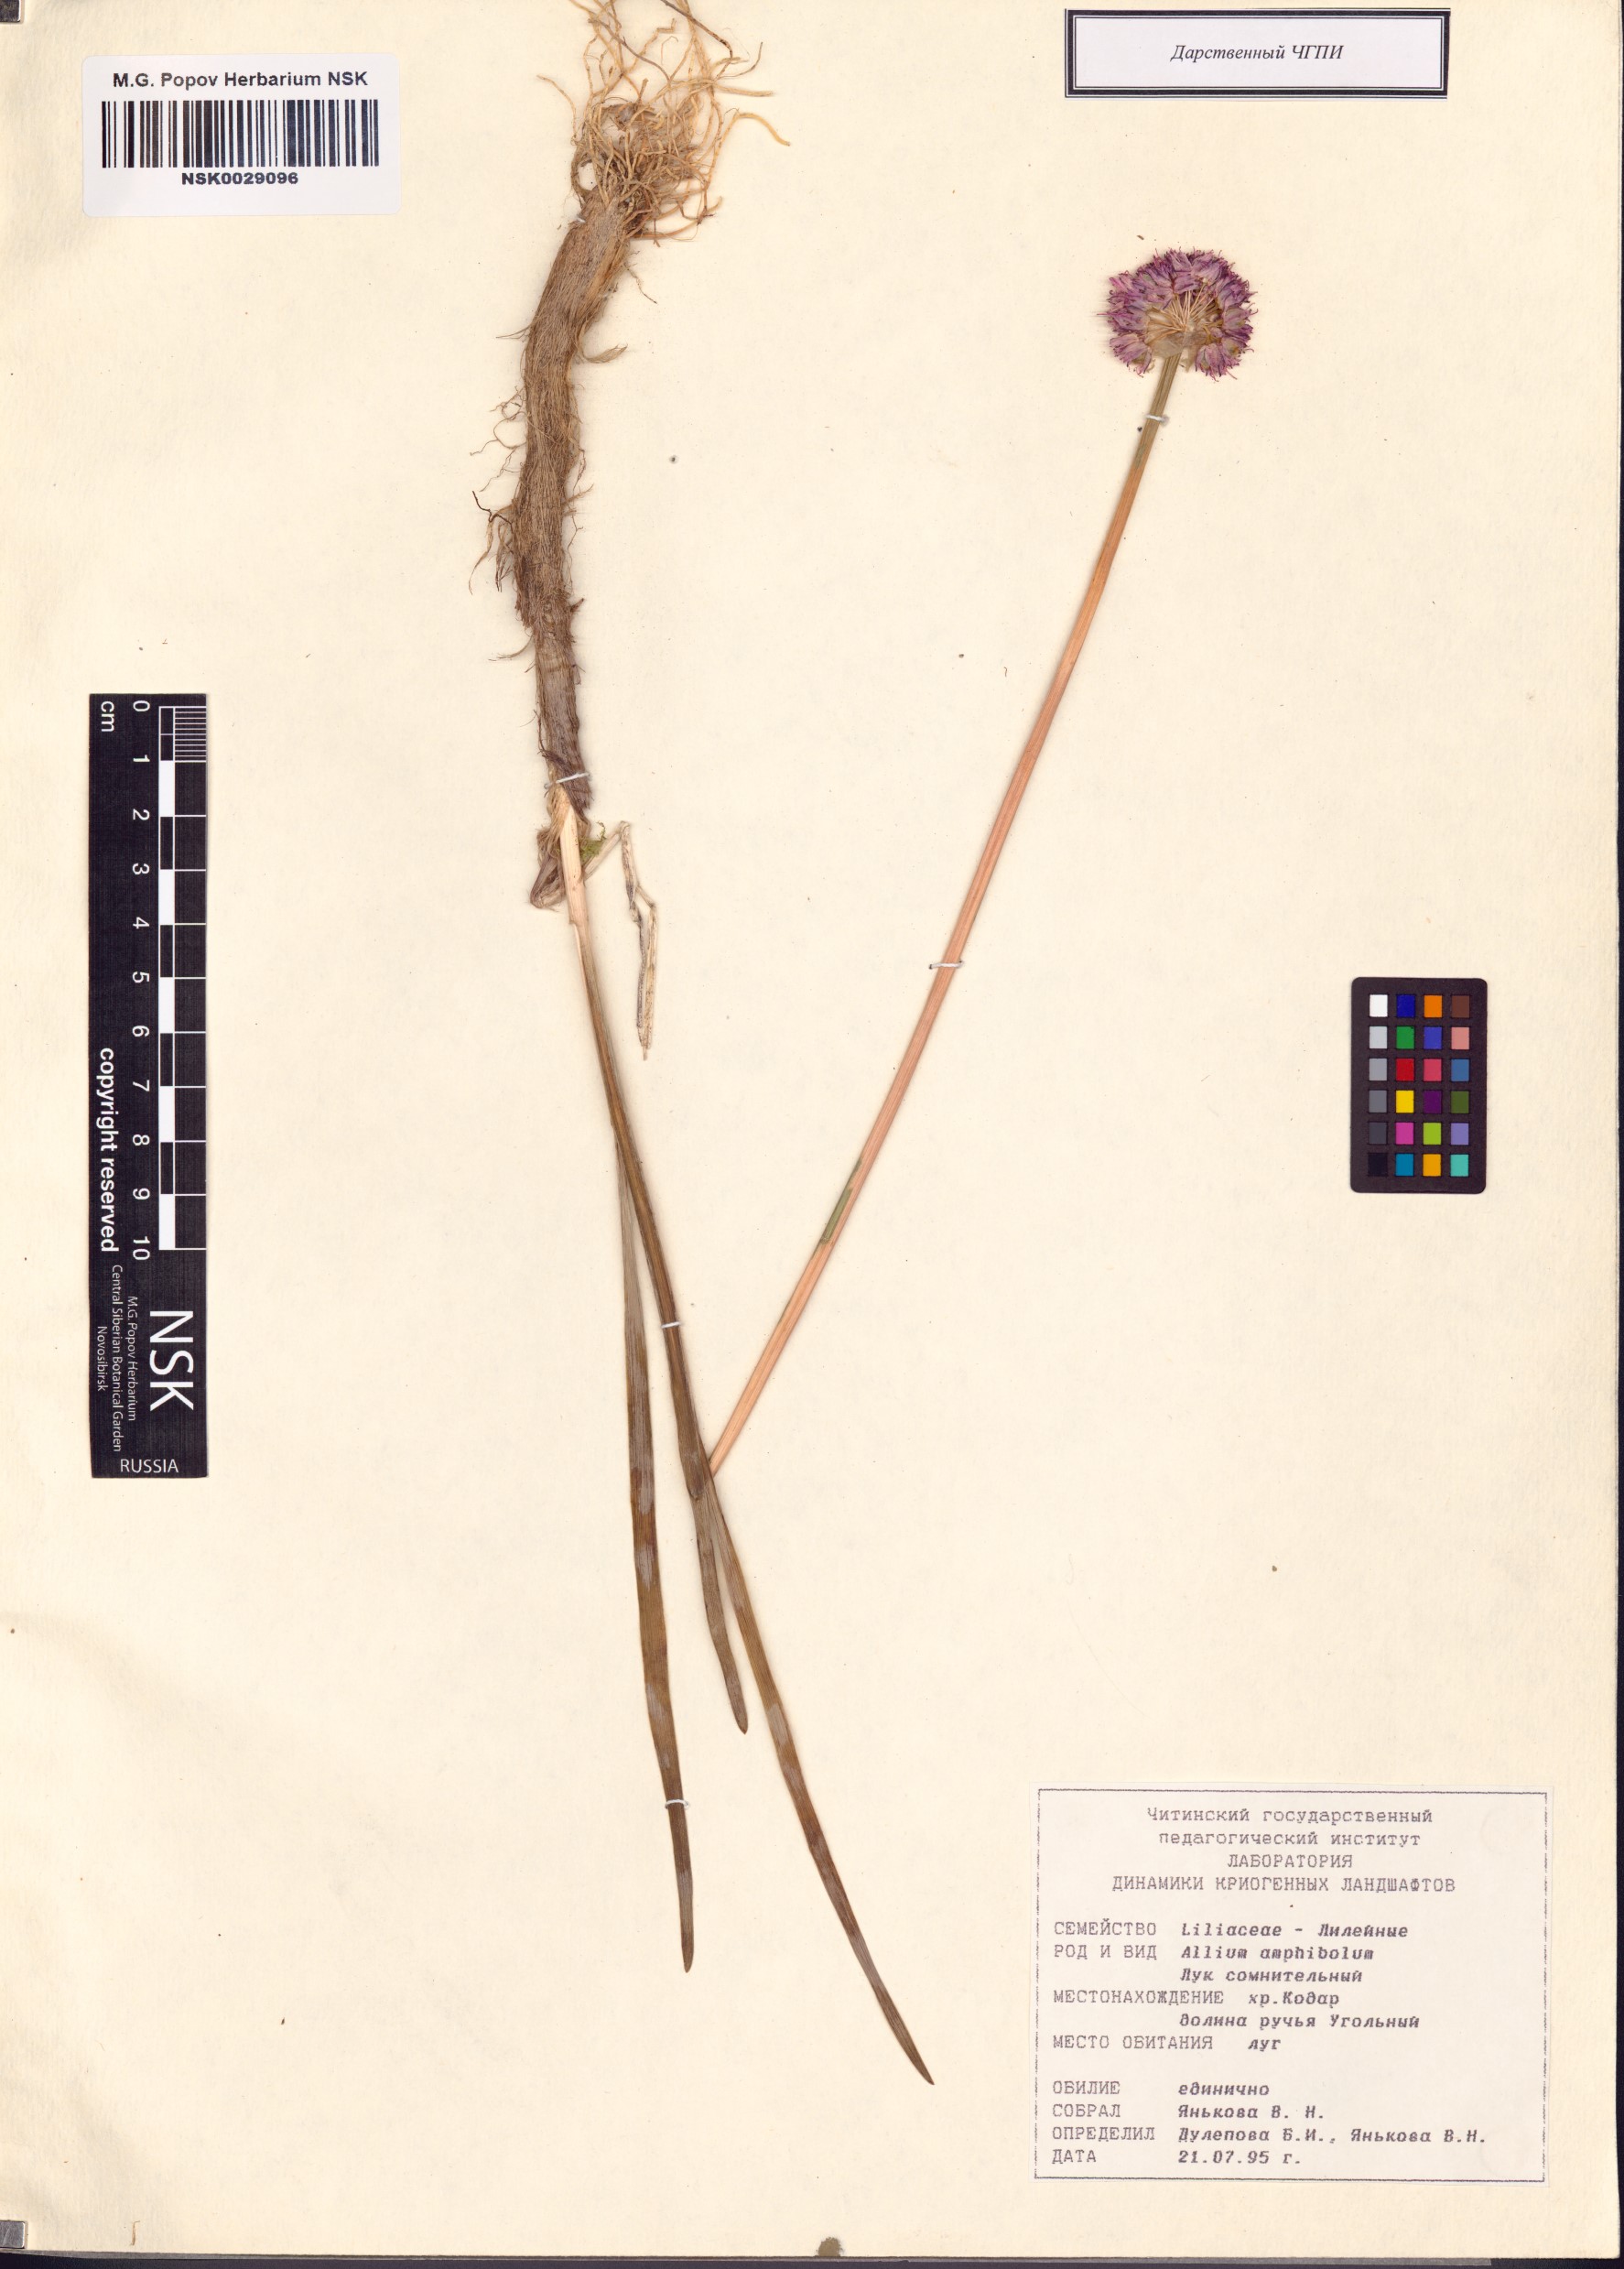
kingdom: Plantae
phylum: Tracheophyta
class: Liliopsida
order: Asparagales
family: Amaryllidaceae
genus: Allium
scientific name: Allium amphibolum
